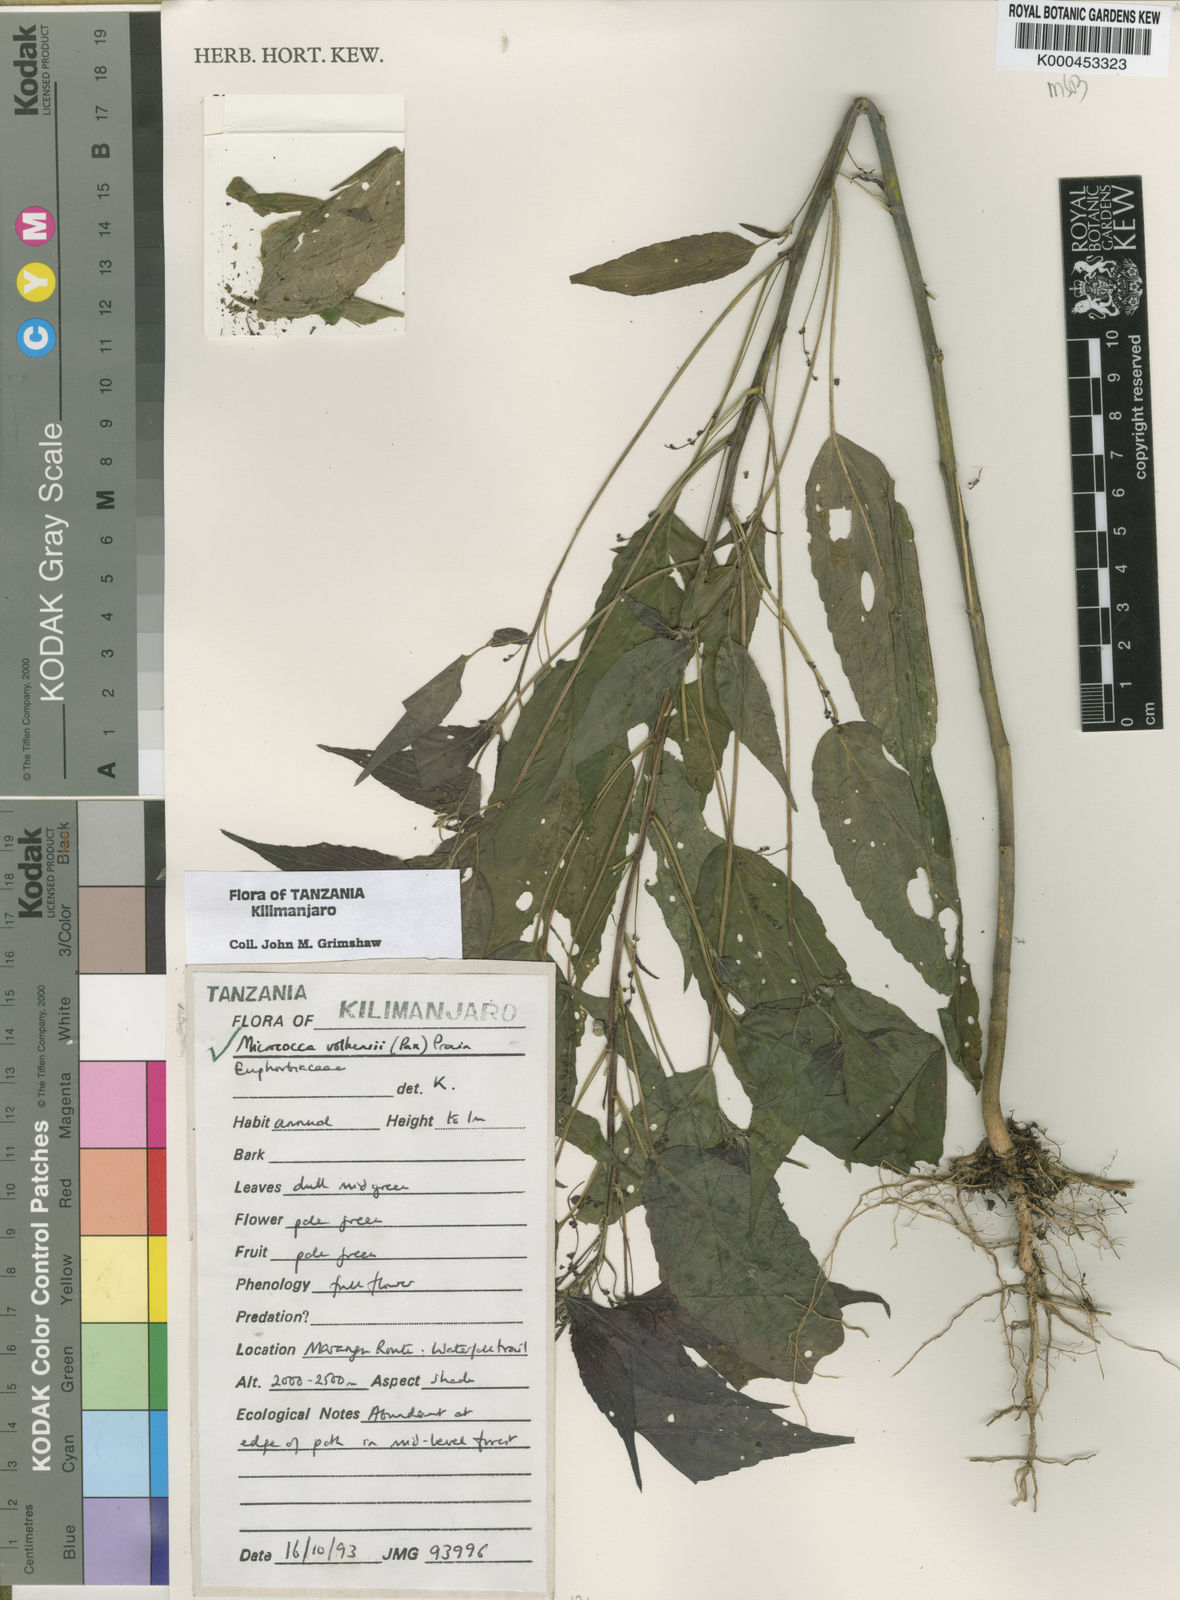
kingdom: Plantae
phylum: Tracheophyta
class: Magnoliopsida
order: Malpighiales
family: Euphorbiaceae
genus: Micrococca
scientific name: Micrococca volkensii
